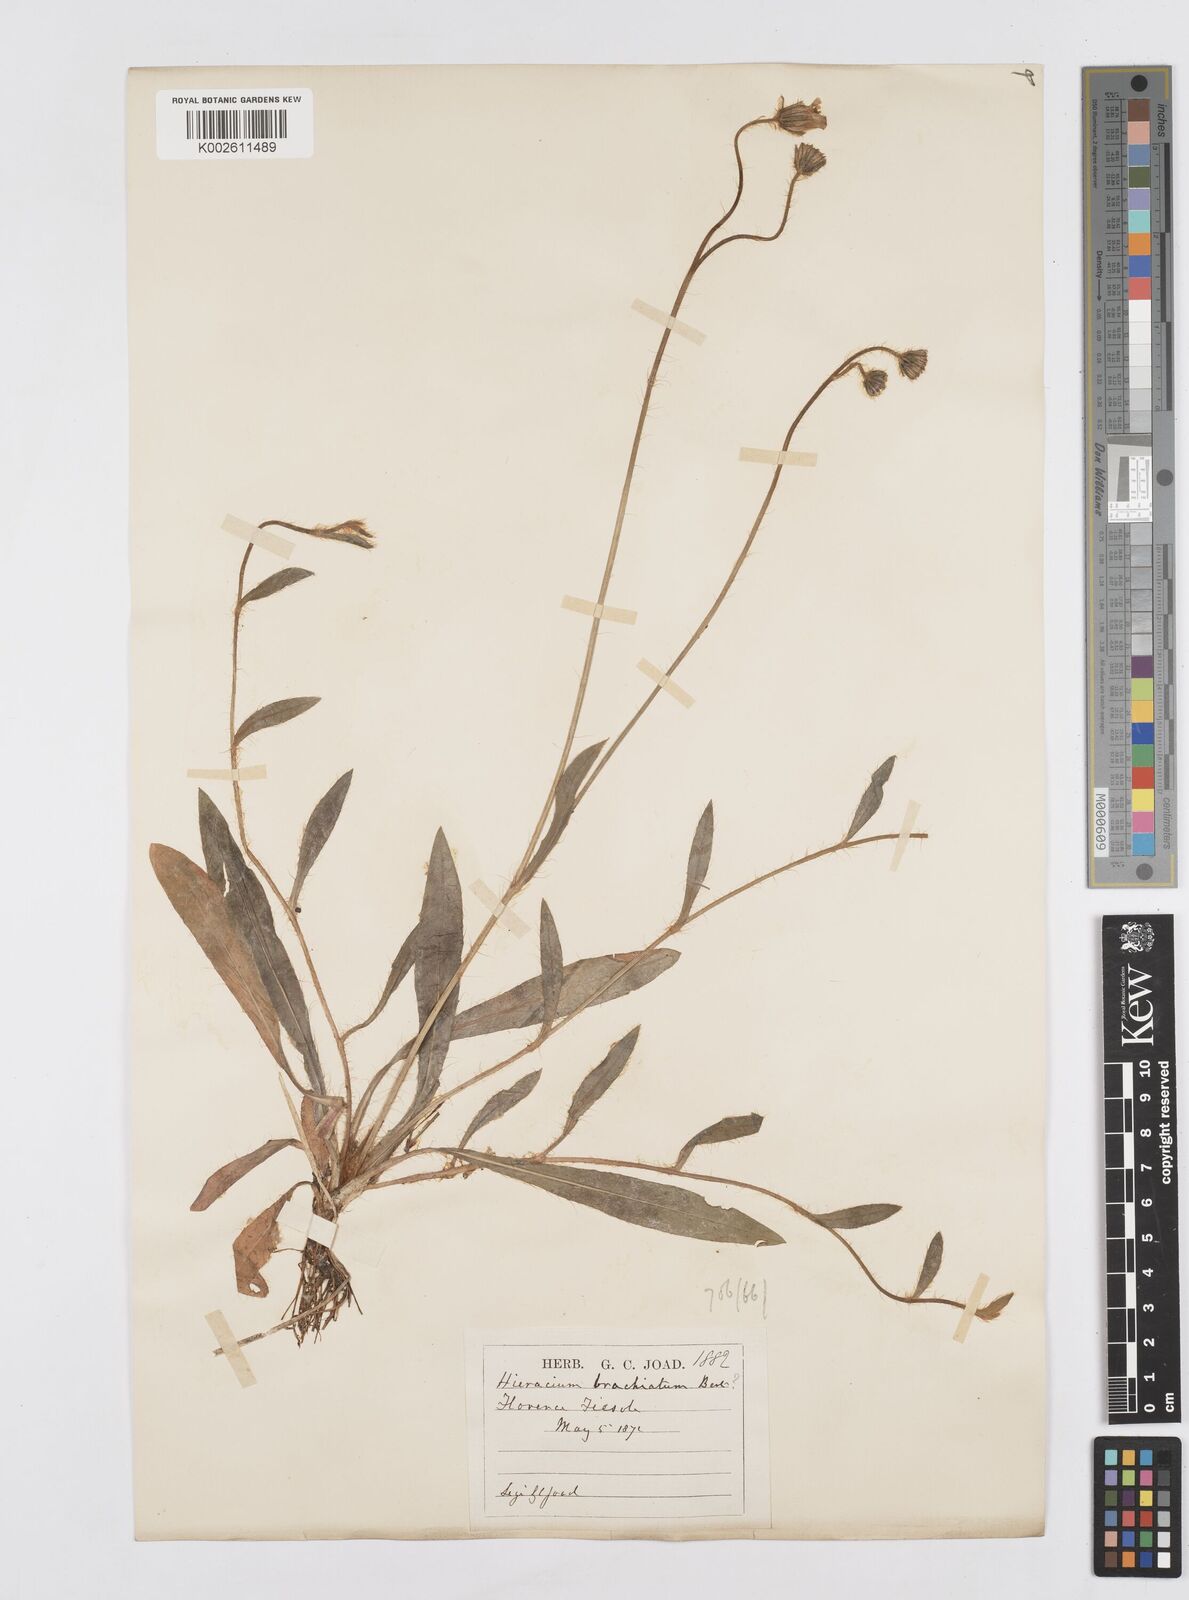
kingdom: Plantae
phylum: Tracheophyta
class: Magnoliopsida
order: Asterales
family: Asteraceae
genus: Pilosella
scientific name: Pilosella acutifolia
